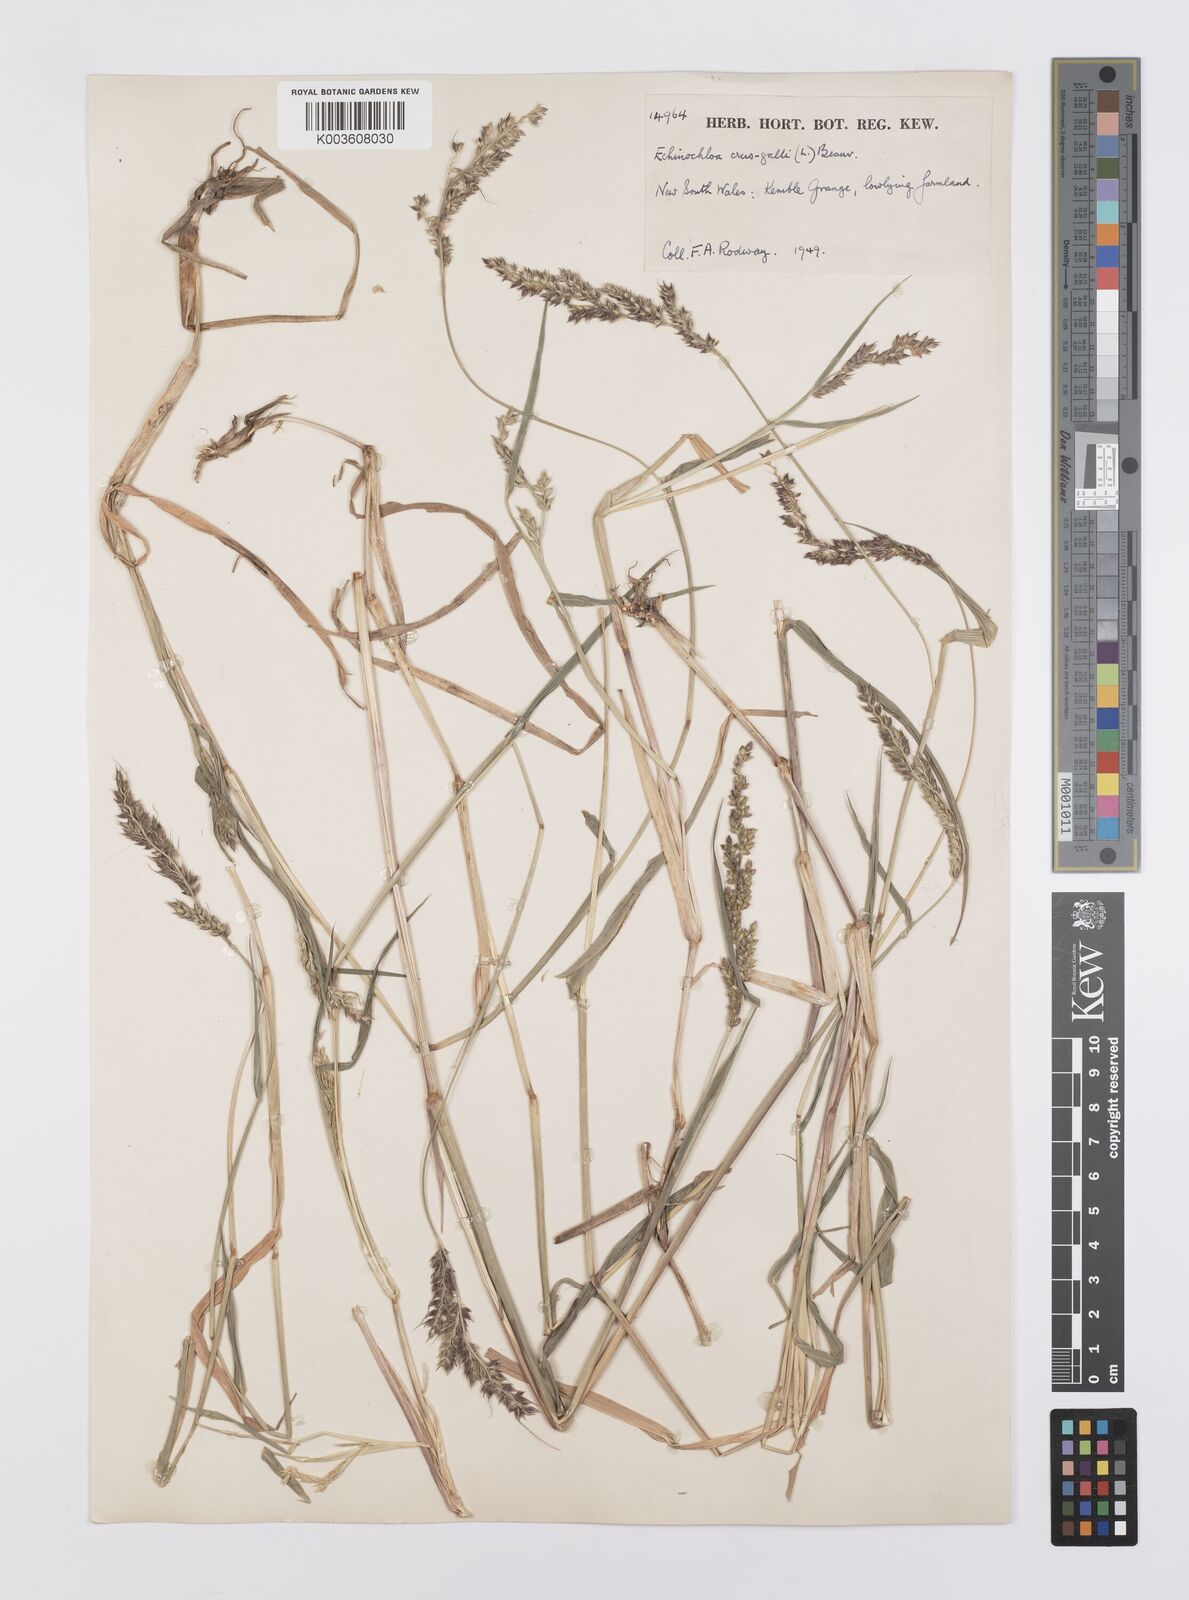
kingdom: Plantae
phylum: Tracheophyta
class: Liliopsida
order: Poales
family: Poaceae
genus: Echinochloa
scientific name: Echinochloa crus-galli
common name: Cockspur
